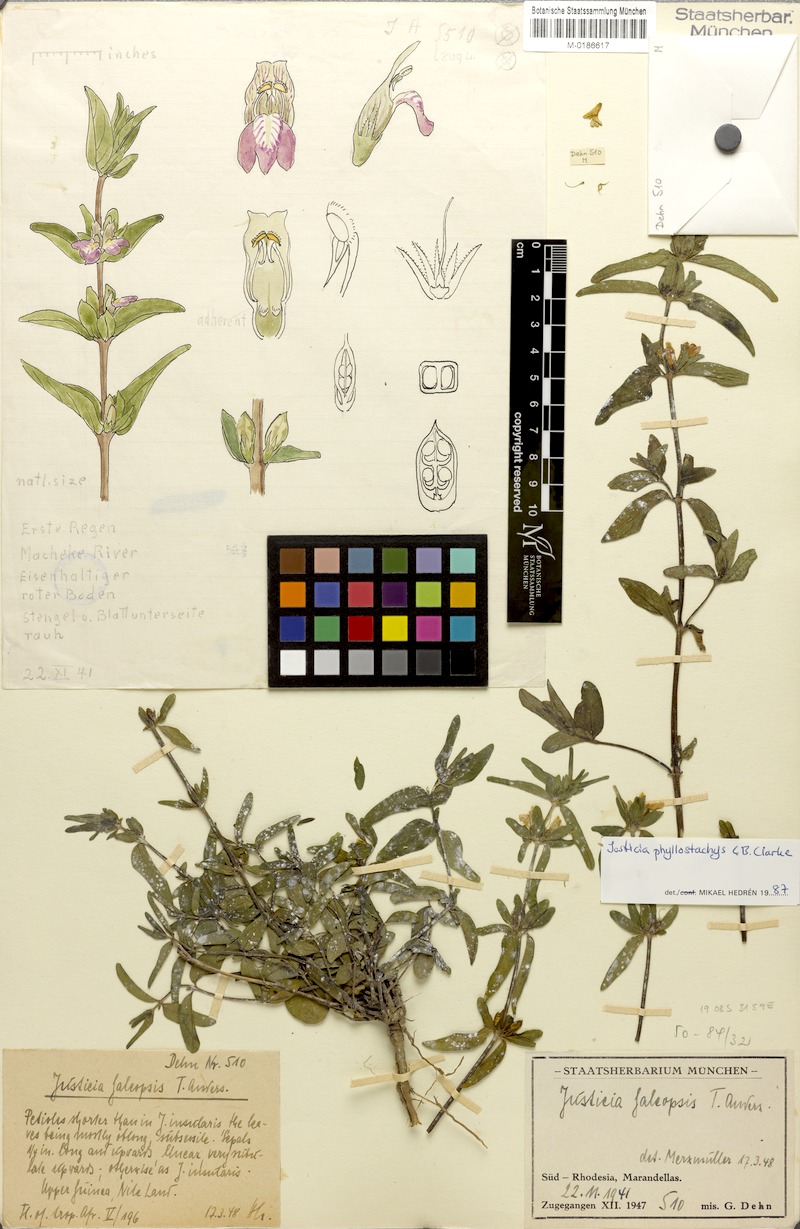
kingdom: Plantae
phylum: Tracheophyta
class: Magnoliopsida
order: Lamiales
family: Acanthaceae
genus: Justicia
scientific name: Justicia phyllostachys
